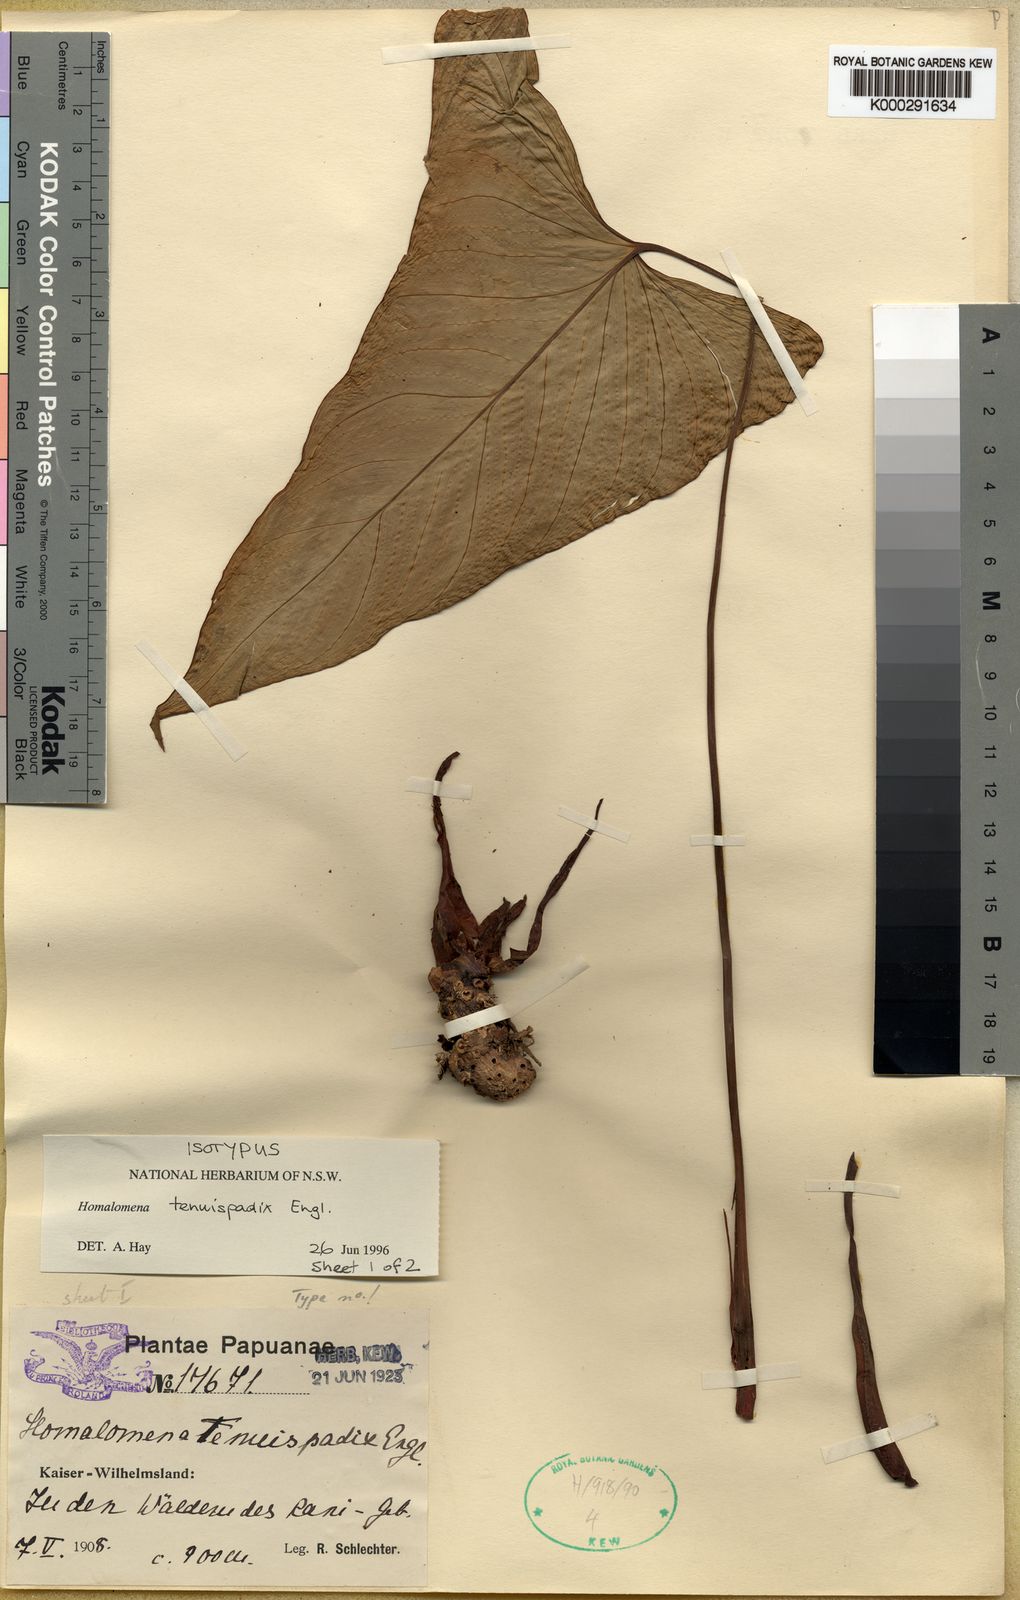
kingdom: Plantae
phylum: Tracheophyta
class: Liliopsida
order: Alismatales
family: Araceae
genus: Homalomena
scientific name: Homalomena tenuispadix
